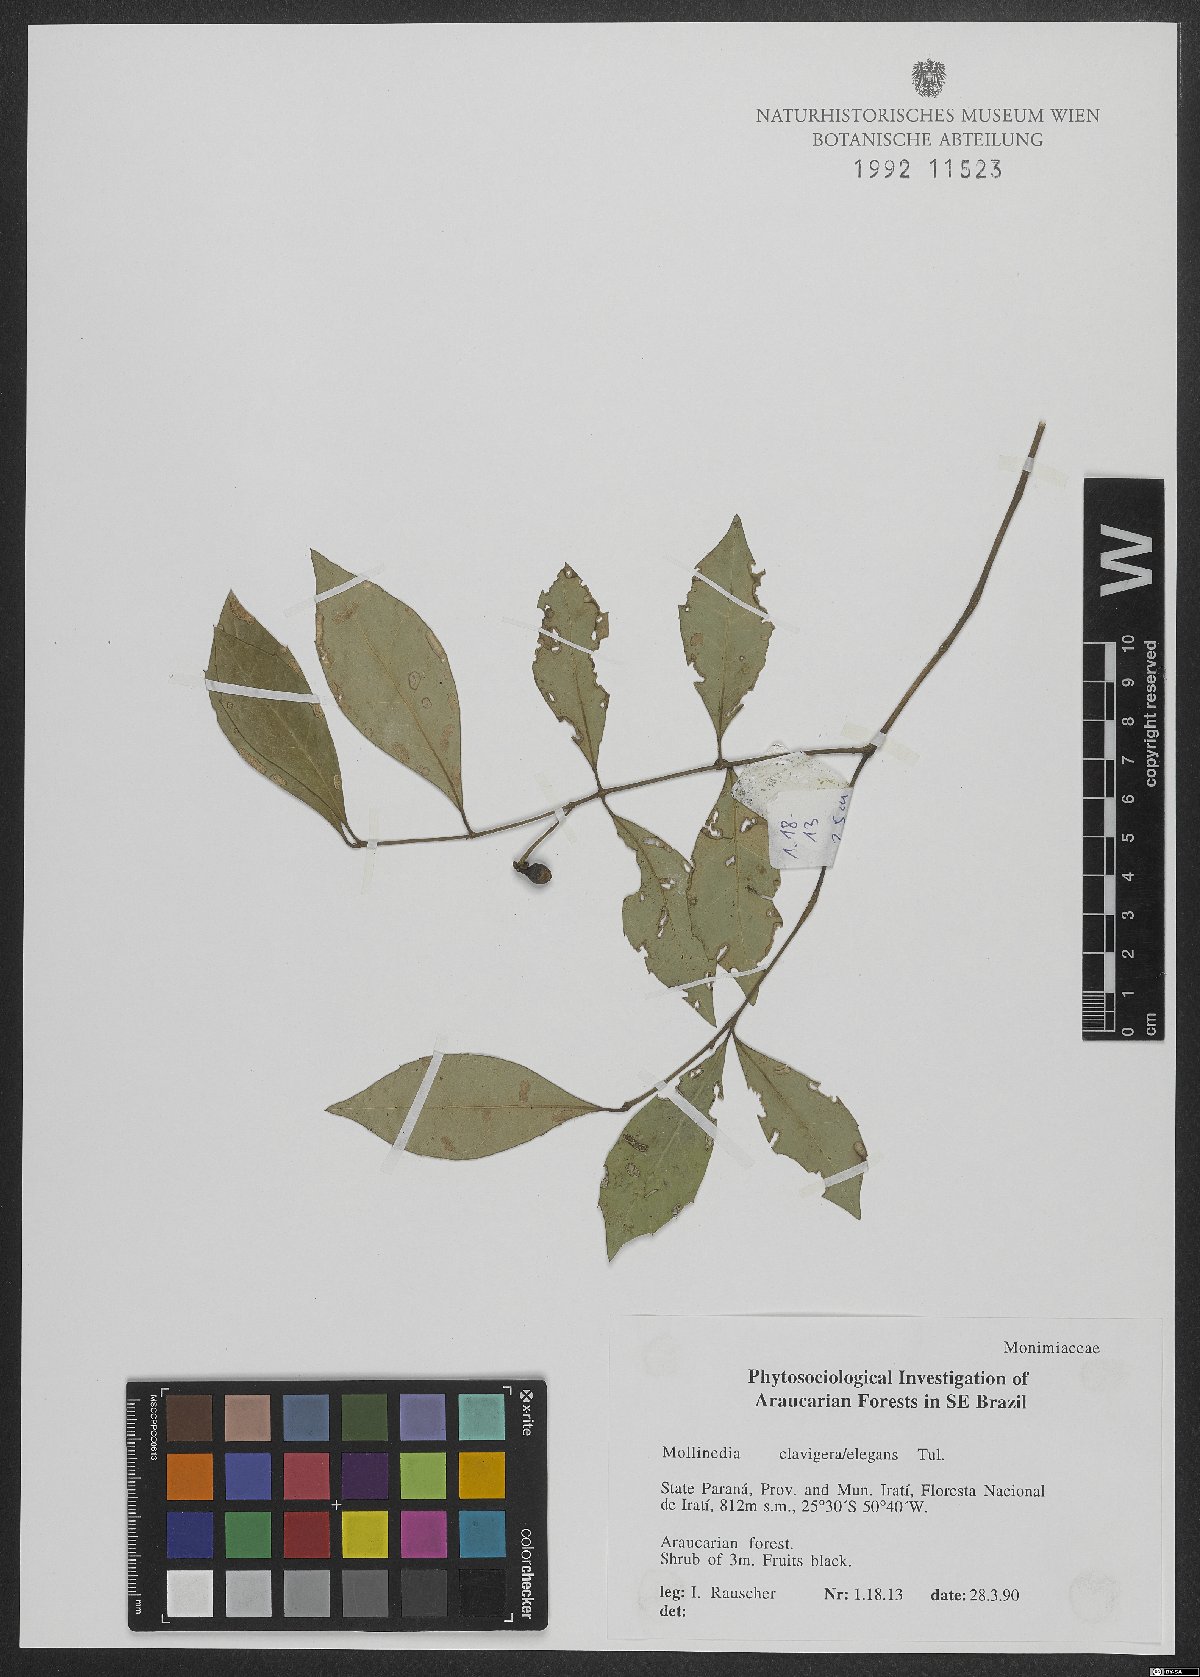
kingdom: Plantae
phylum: Tracheophyta
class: Magnoliopsida
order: Laurales
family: Monimiaceae
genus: Mollinedia
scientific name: Mollinedia clavigera
